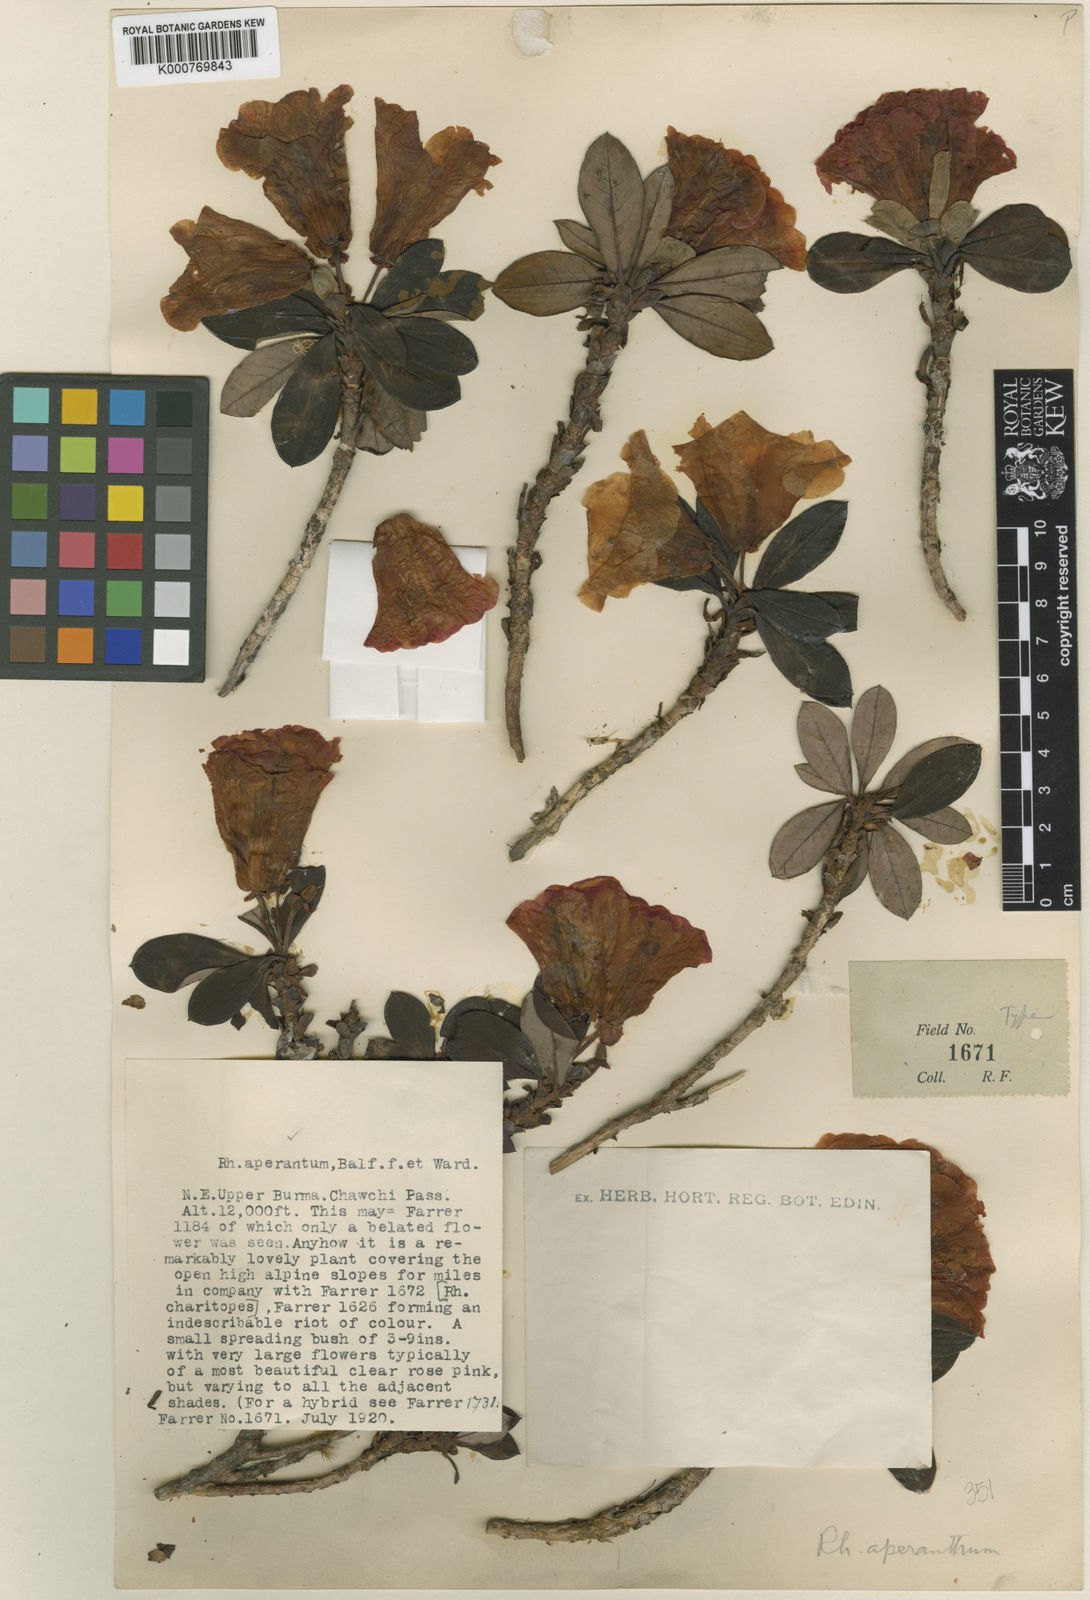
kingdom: Plantae
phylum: Tracheophyta
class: Magnoliopsida
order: Ericales
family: Ericaceae
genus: Rhododendron
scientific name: Rhododendron aperantum
